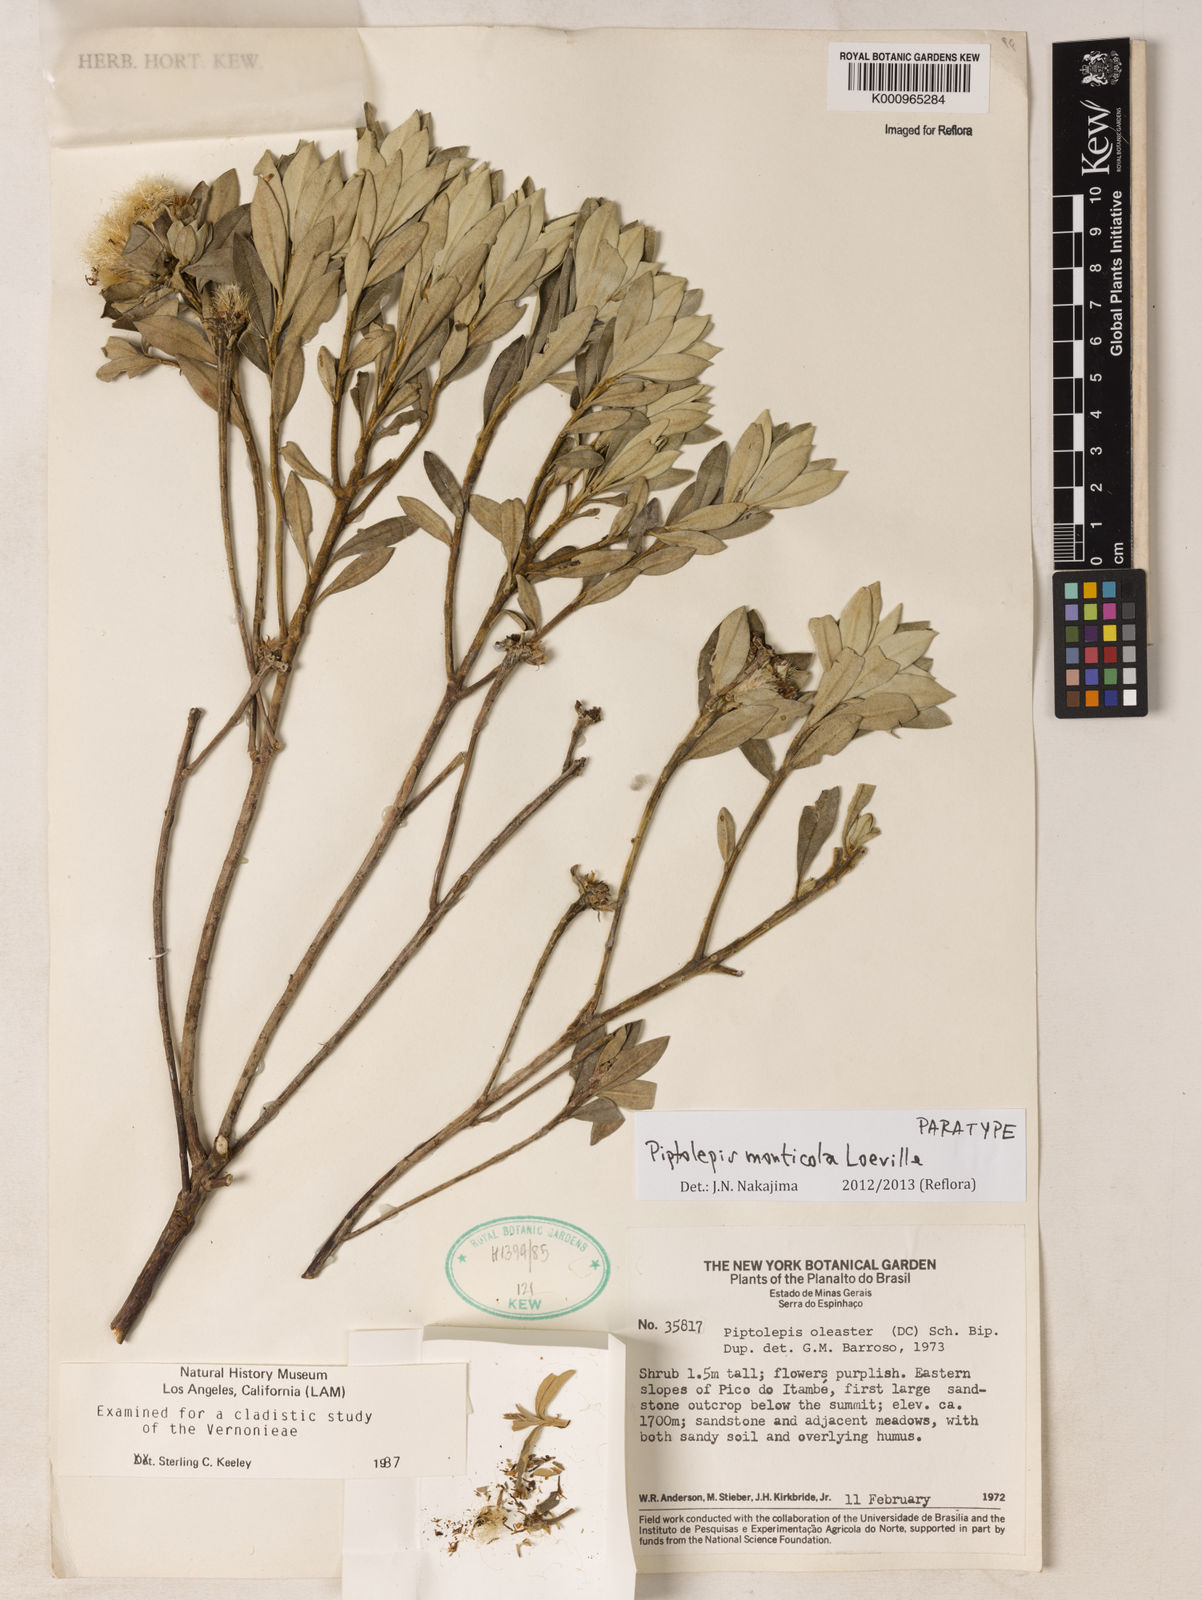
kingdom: Plantae
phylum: Tracheophyta
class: Magnoliopsida
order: Asterales
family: Asteraceae
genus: Piptolepis
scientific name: Piptolepis monticola
